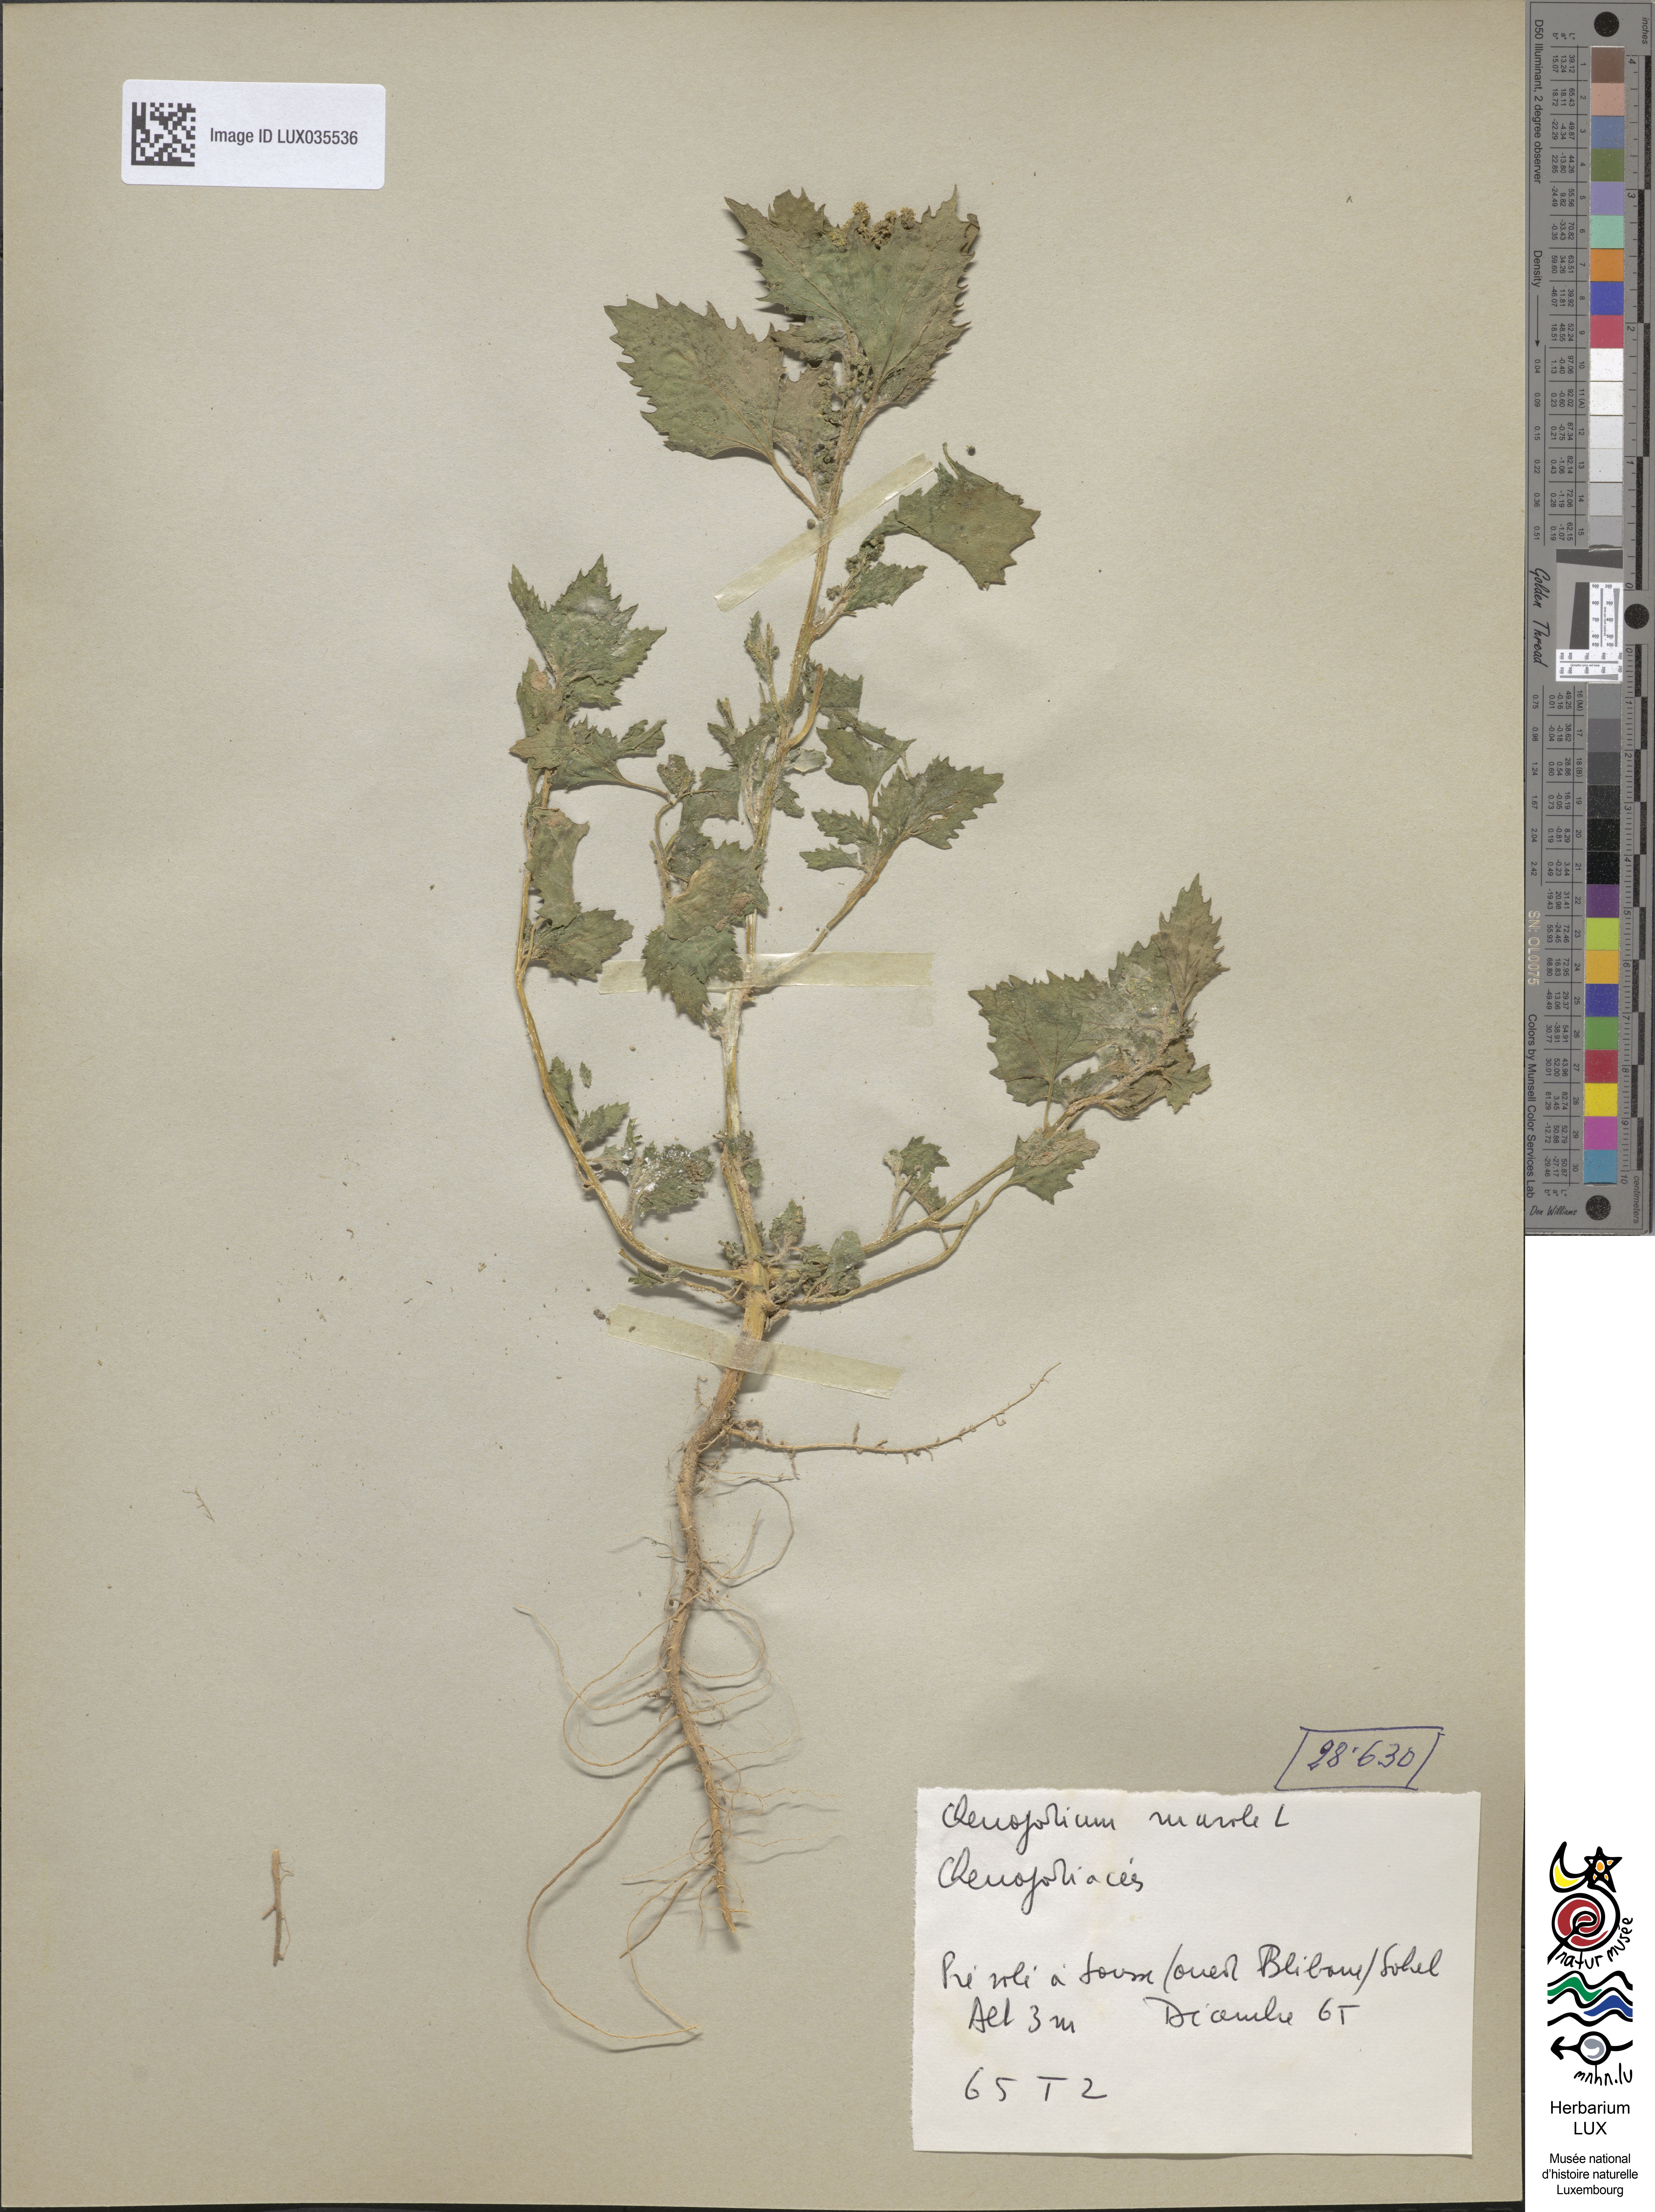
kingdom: Plantae
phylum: Tracheophyta
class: Magnoliopsida
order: Caryophyllales
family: Amaranthaceae
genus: Chenopodiastrum
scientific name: Chenopodiastrum murale
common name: Sowbane
